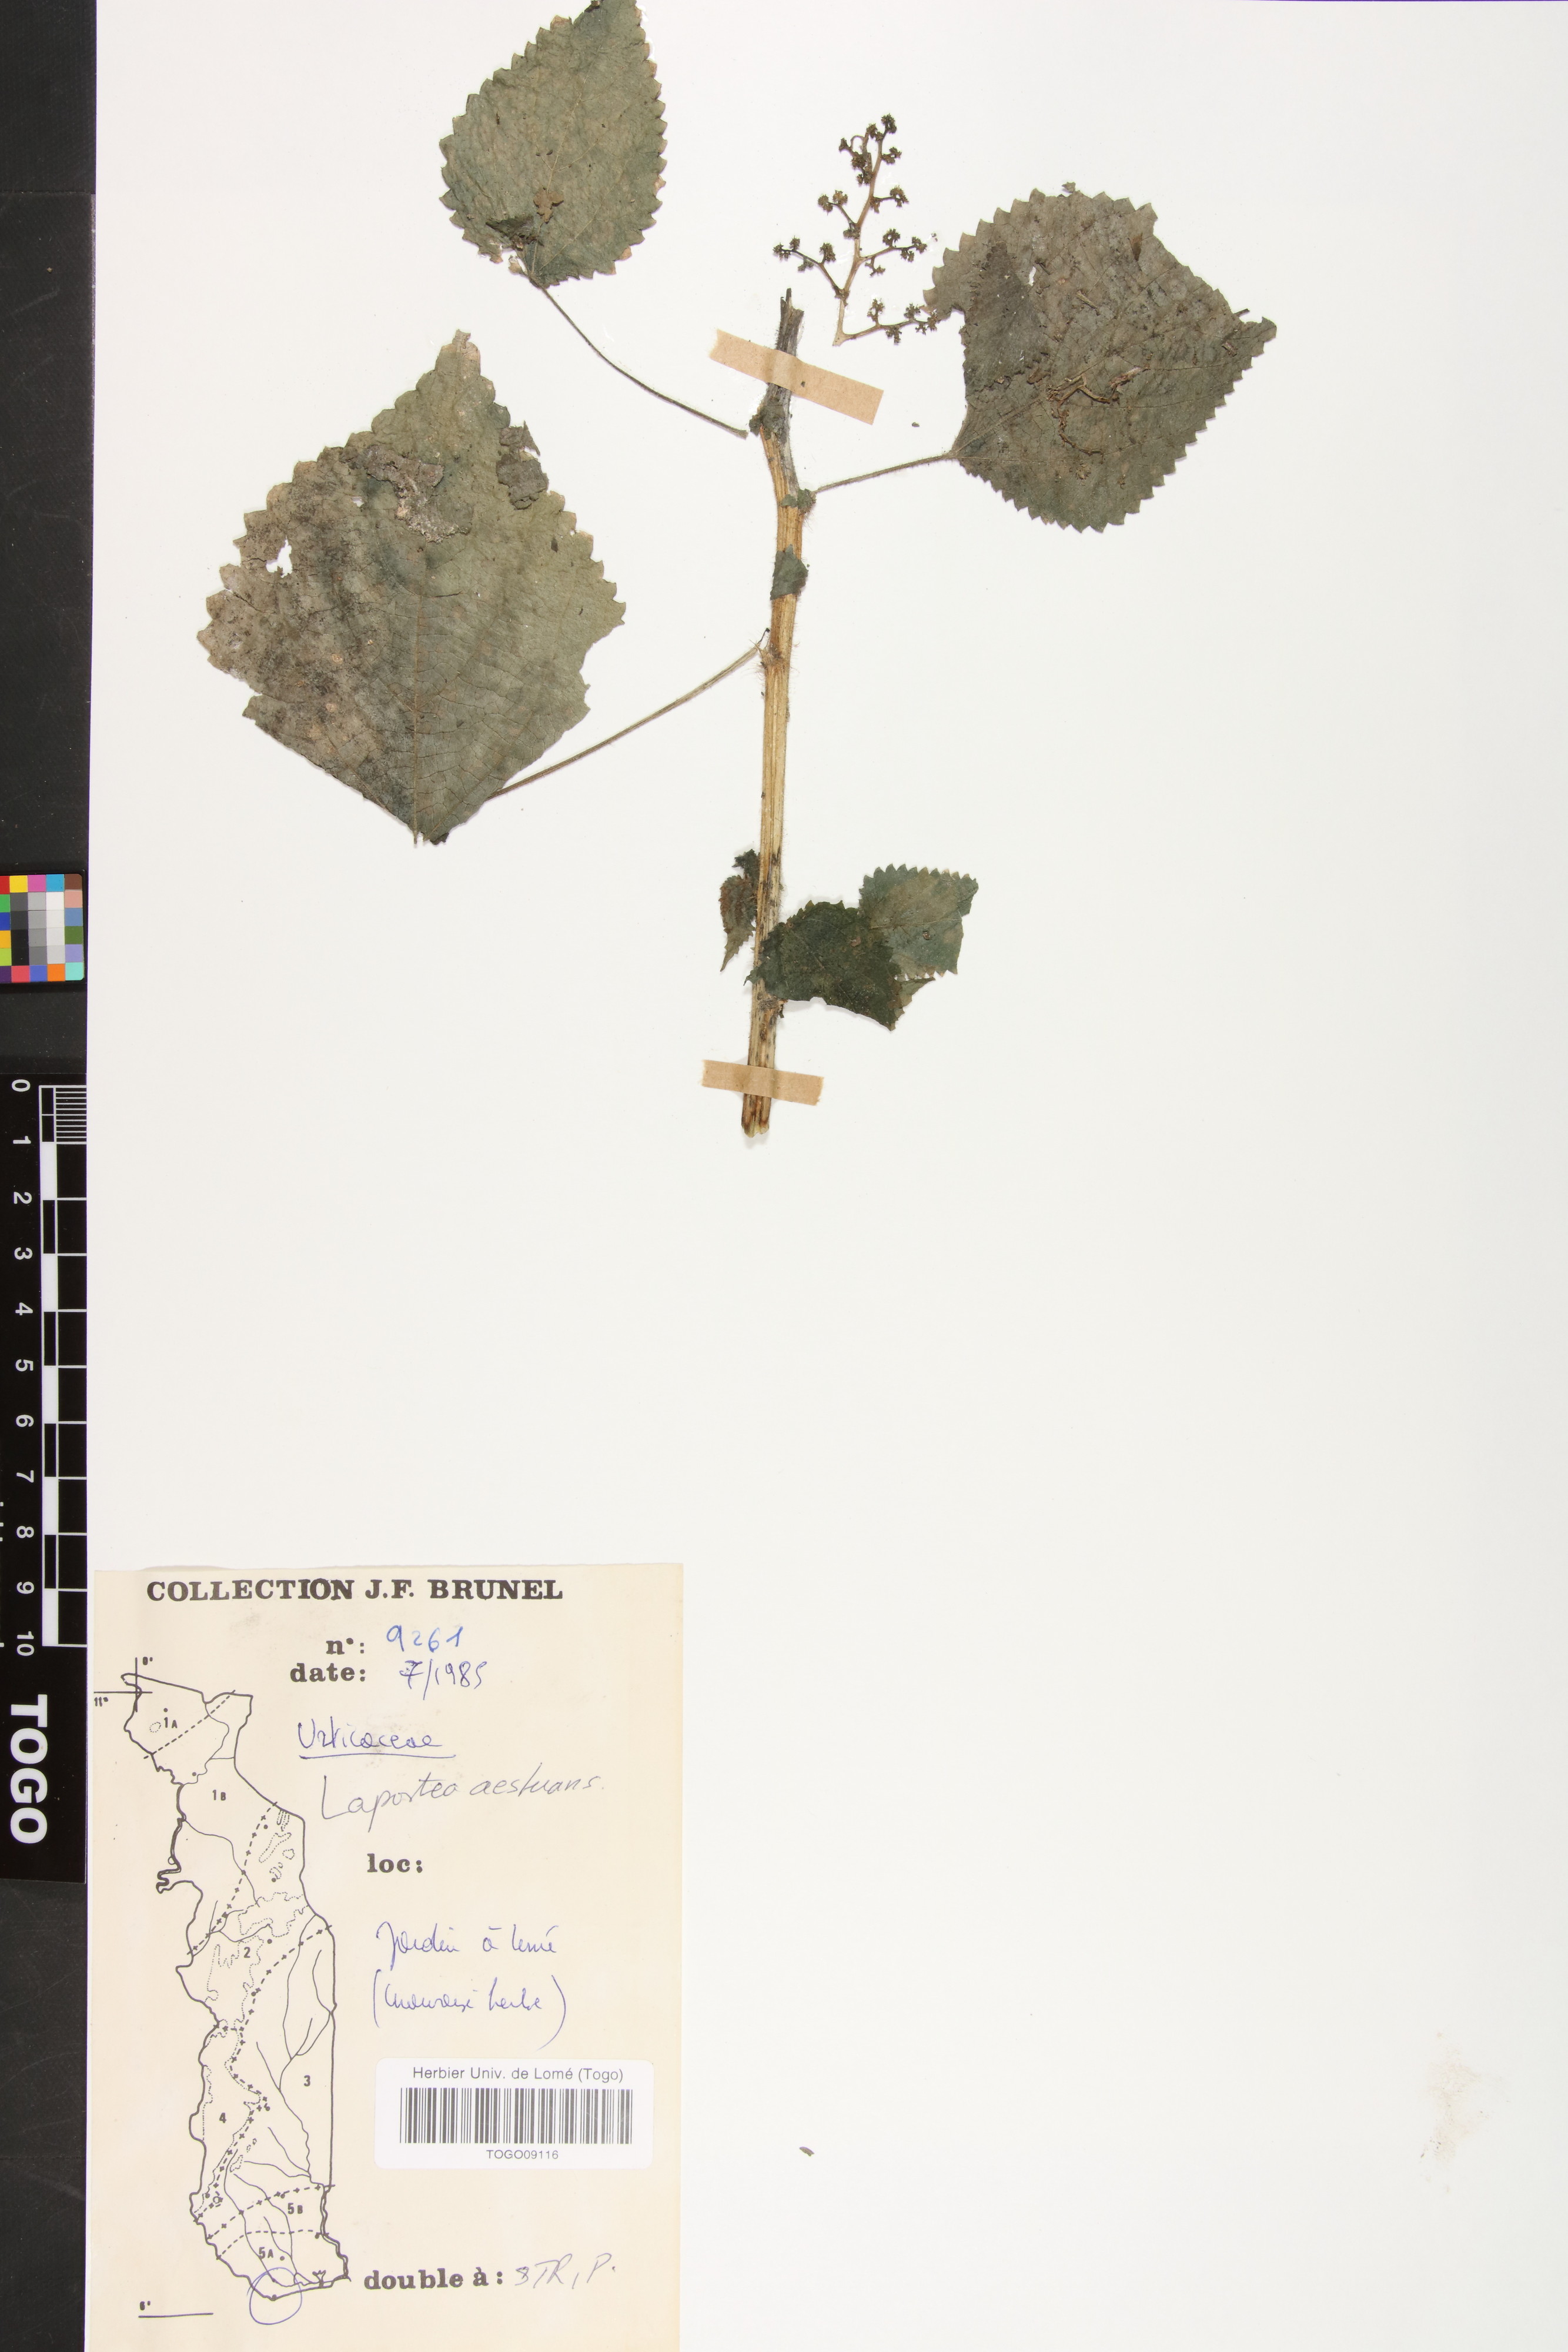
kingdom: Plantae
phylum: Tracheophyta
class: Magnoliopsida
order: Rosales
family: Urticaceae
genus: Laportea
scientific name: Laportea aestuans
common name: West indian woodnettle
